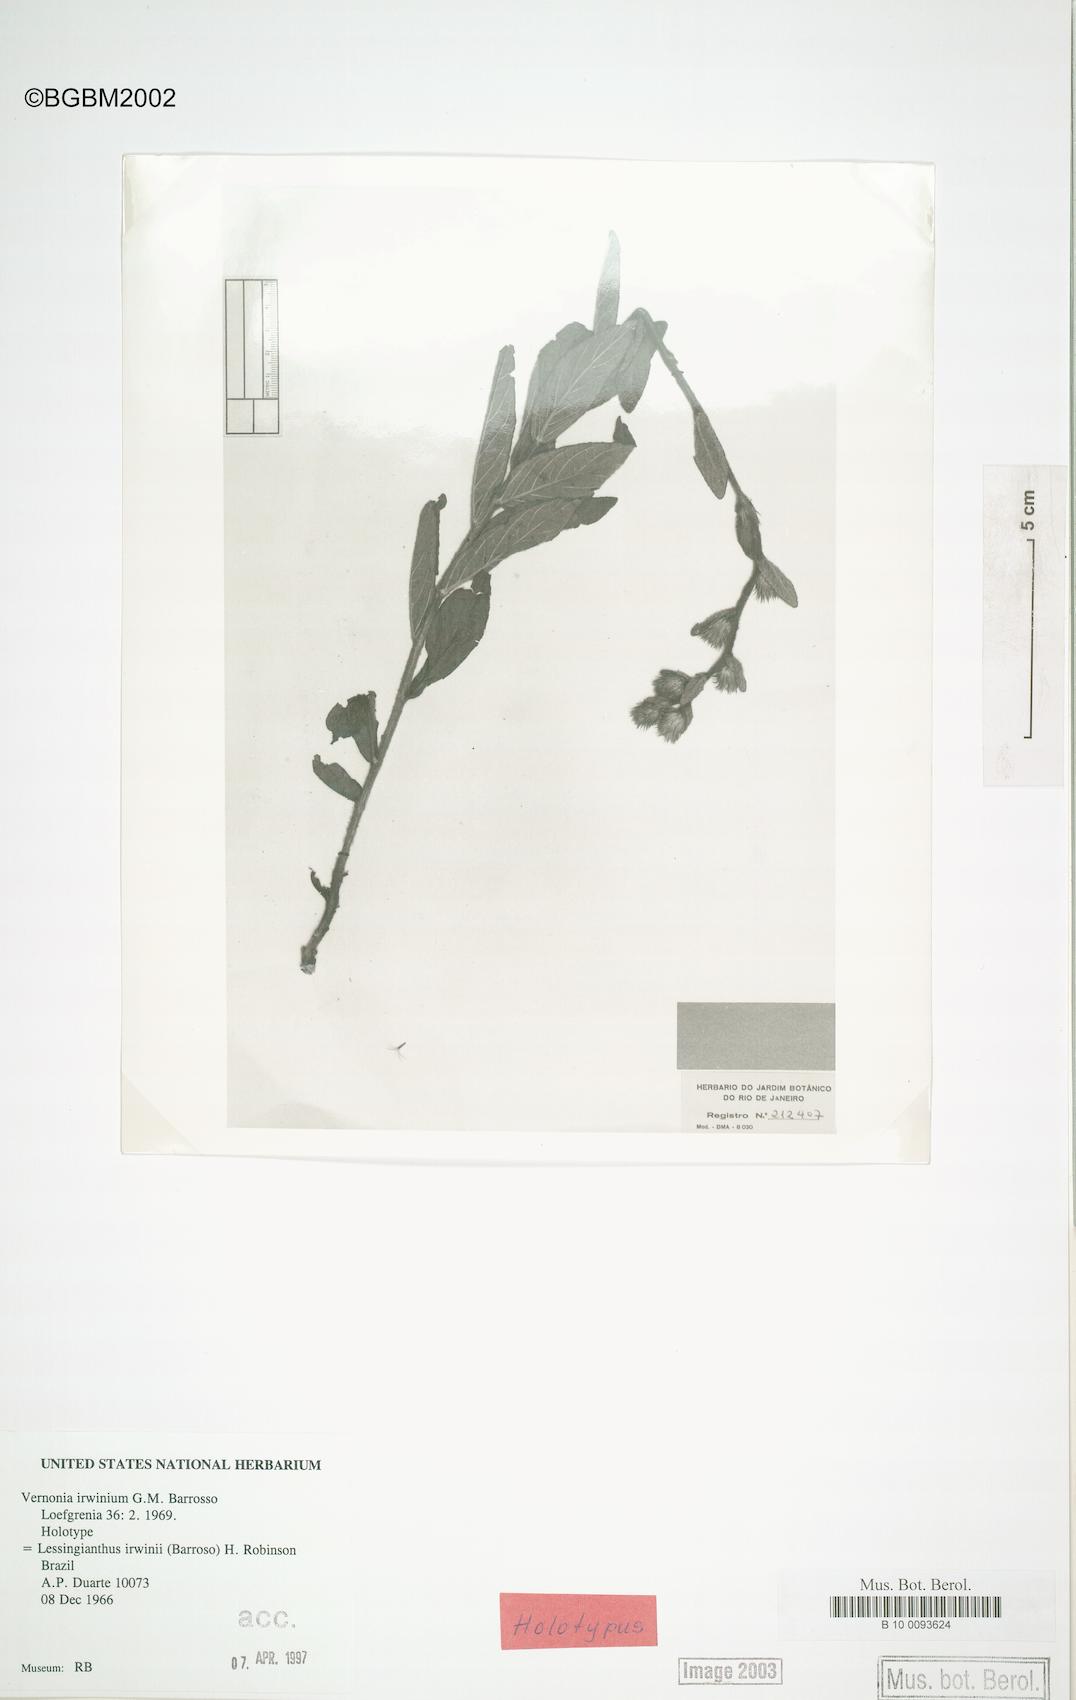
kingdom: Plantae
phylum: Tracheophyta
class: Magnoliopsida
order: Asterales
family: Asteraceae
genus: Lessingianthus
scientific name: Lessingianthus irwinii
